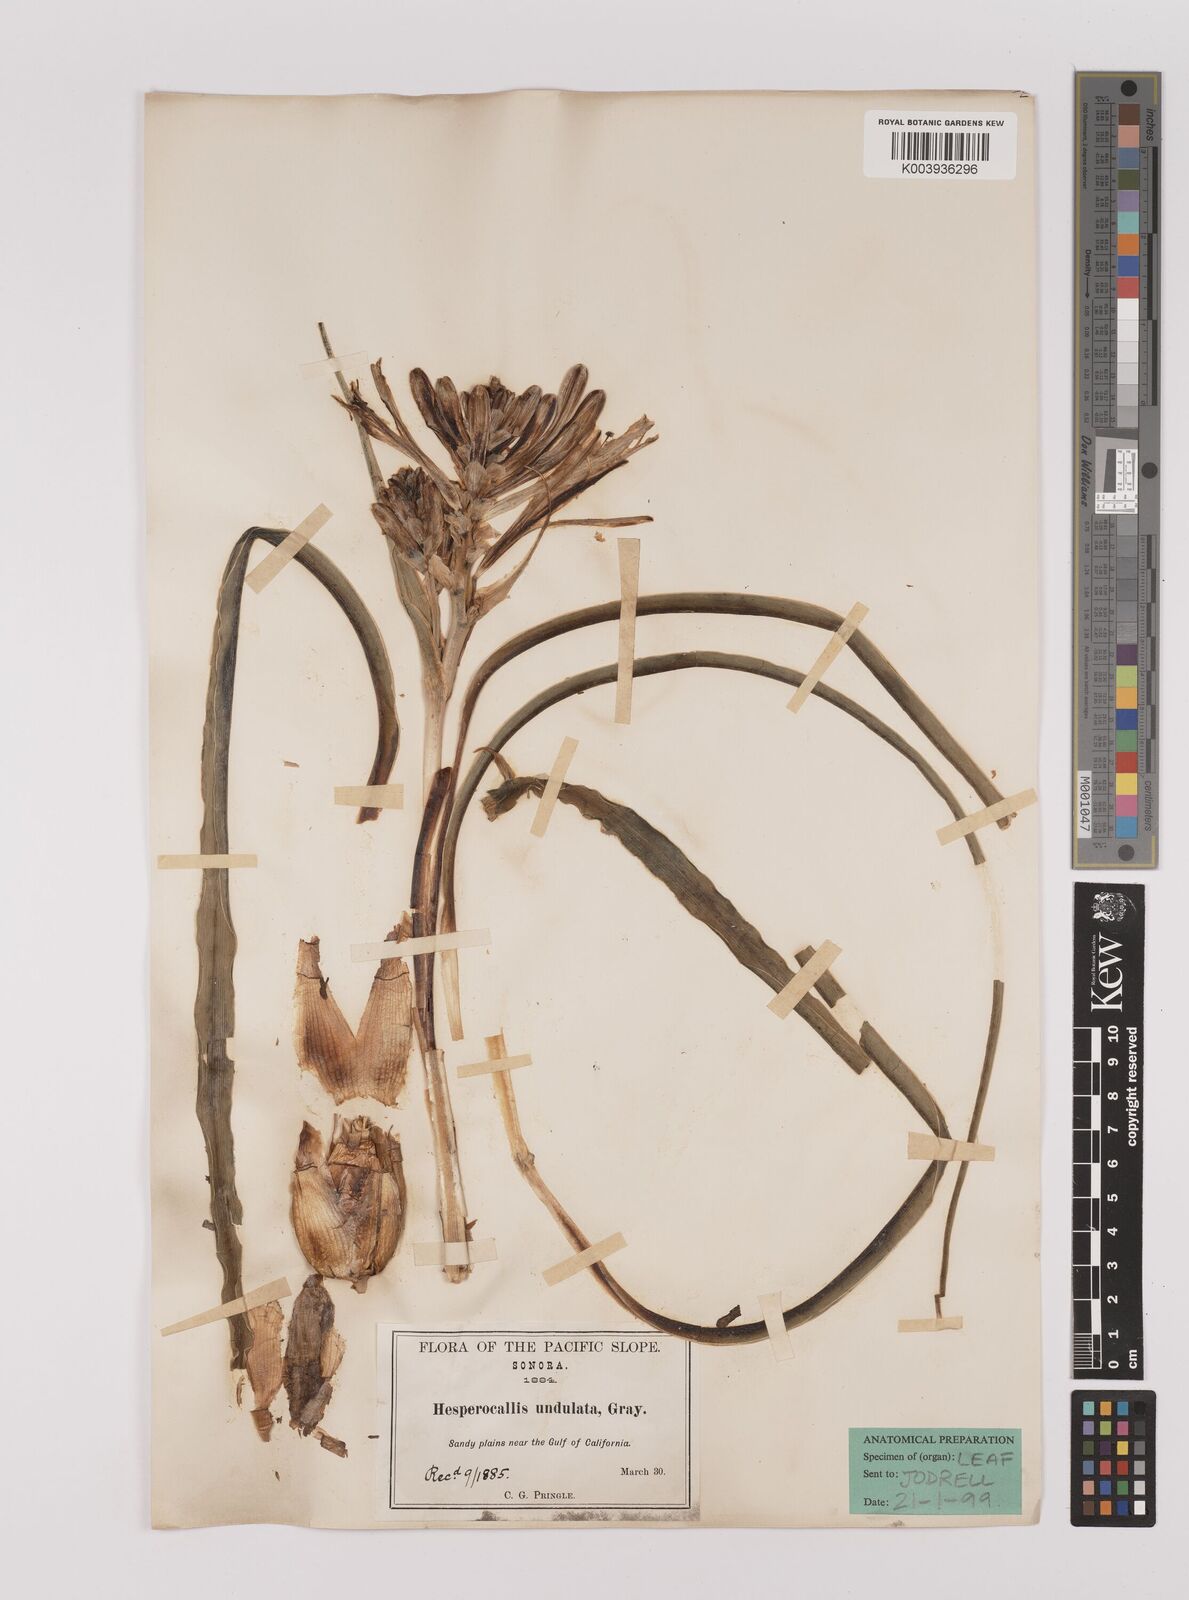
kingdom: Plantae
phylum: Tracheophyta
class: Liliopsida
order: Asparagales
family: Asparagaceae
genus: Hesperocallis
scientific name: Hesperocallis
